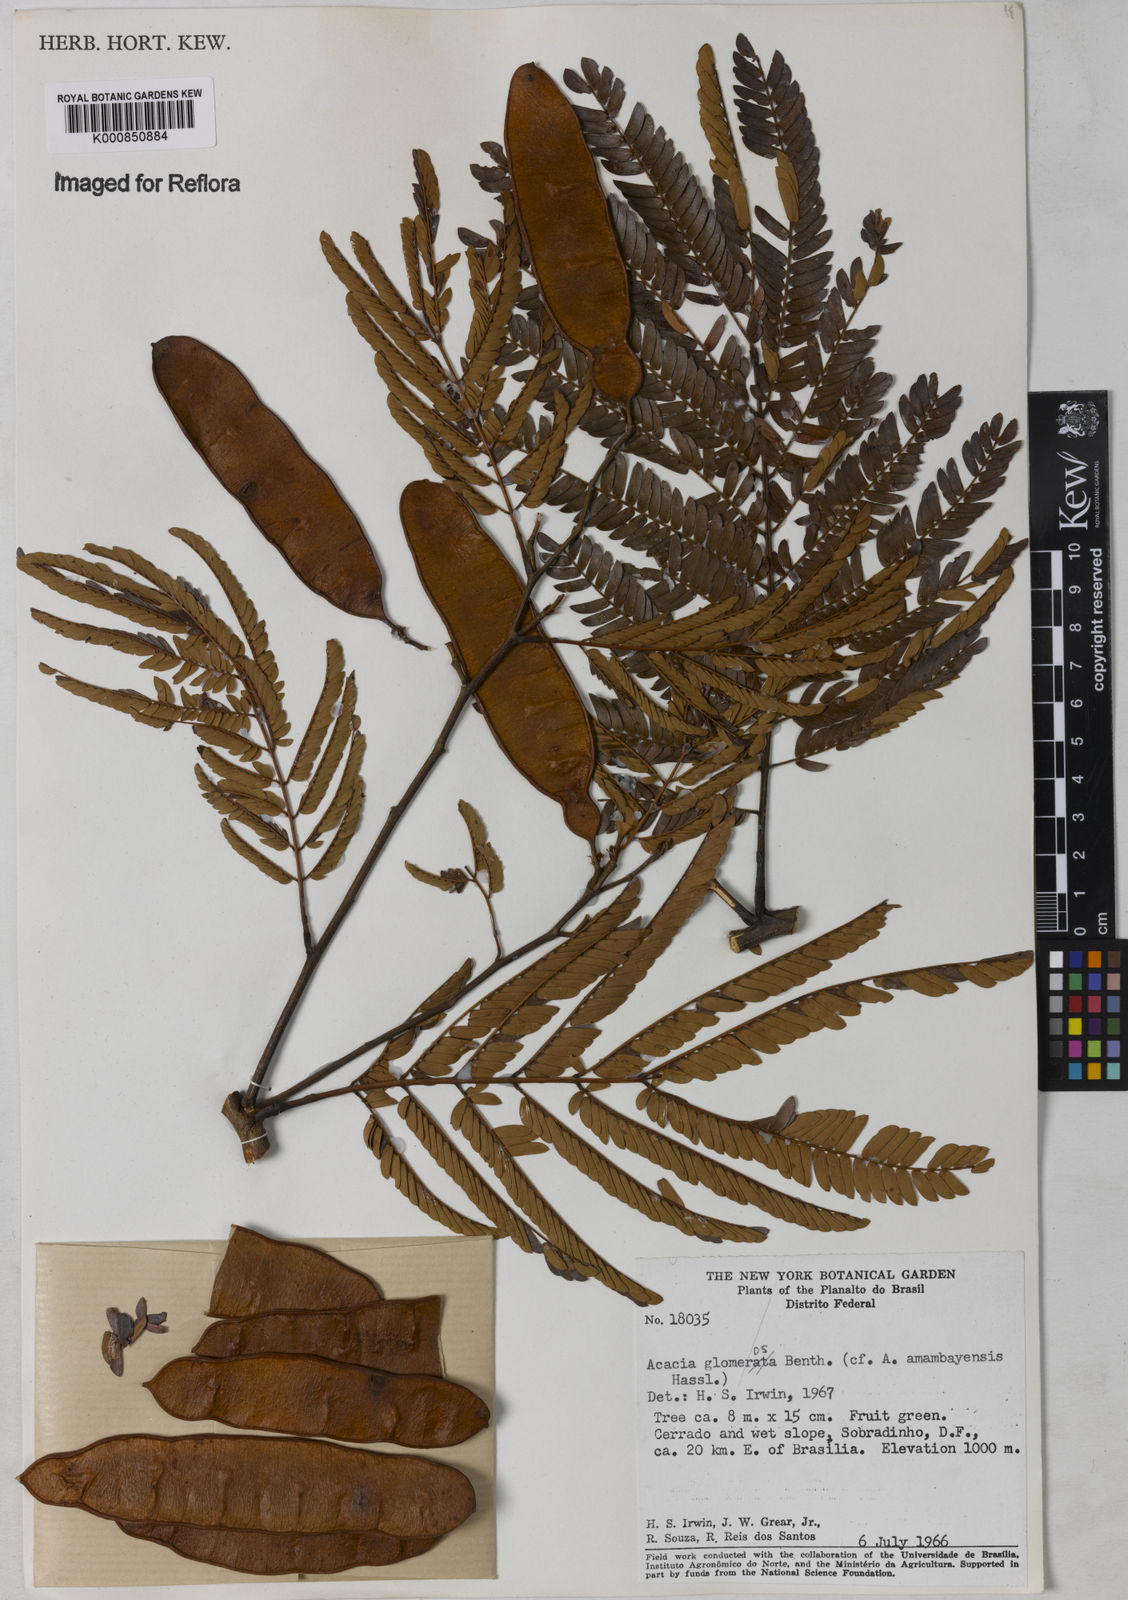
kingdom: Plantae
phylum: Tracheophyta
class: Magnoliopsida
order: Fabales
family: Fabaceae
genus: Senegalia
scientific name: Senegalia polyphylla
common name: White-tamarind
